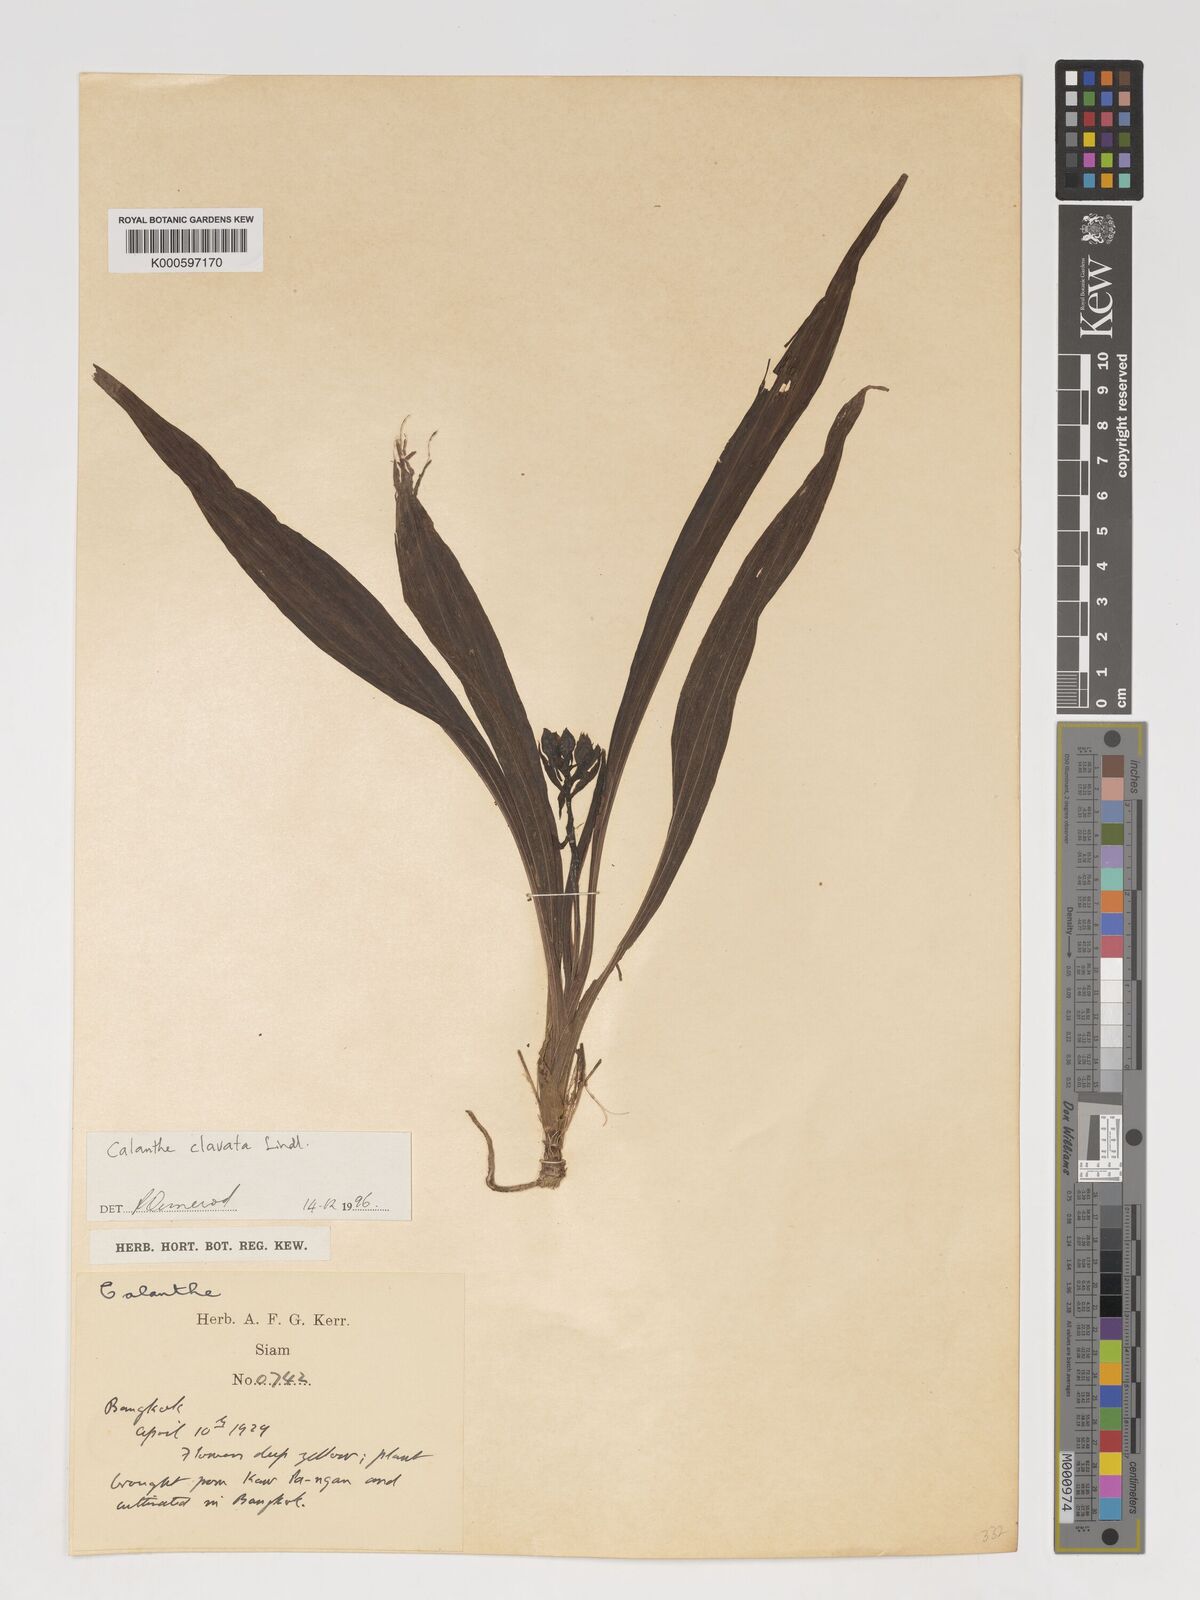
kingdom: Plantae
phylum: Tracheophyta
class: Liliopsida
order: Asparagales
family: Orchidaceae
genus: Calanthe
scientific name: Calanthe ceciliae
